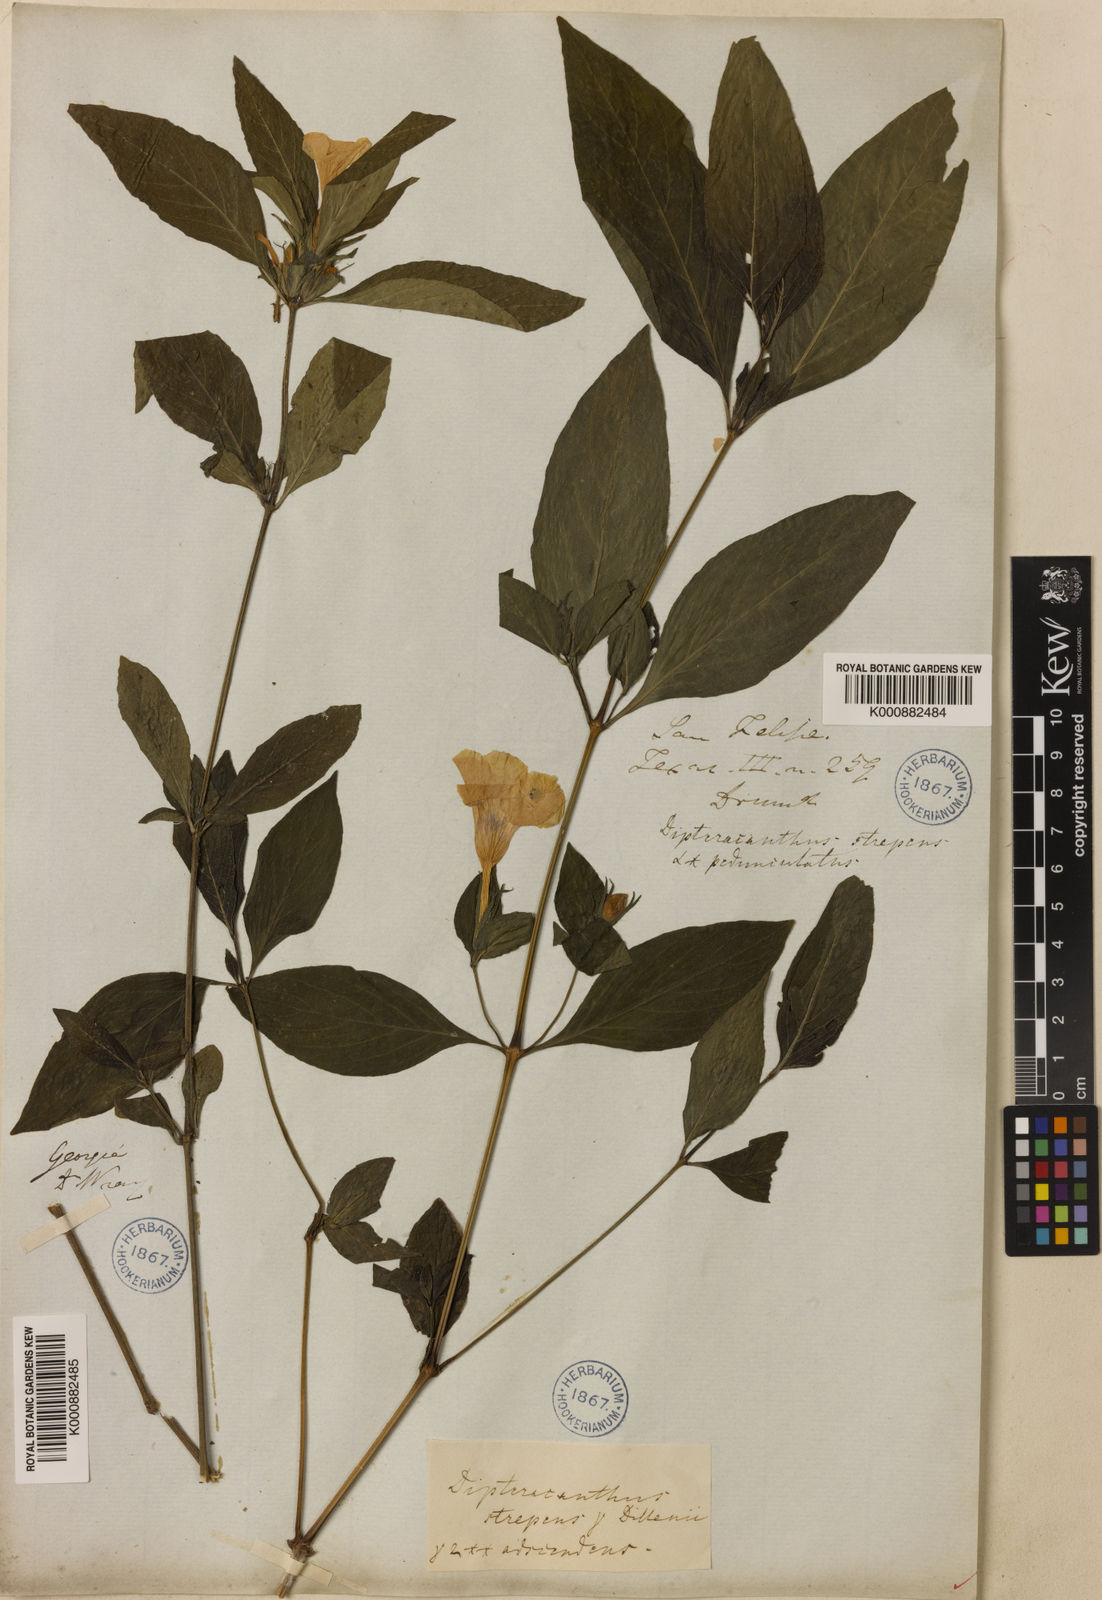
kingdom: Plantae
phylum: Tracheophyta
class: Magnoliopsida
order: Lamiales
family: Acanthaceae
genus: Ruellia
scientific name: Ruellia strepens
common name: Limestone wild petunia
